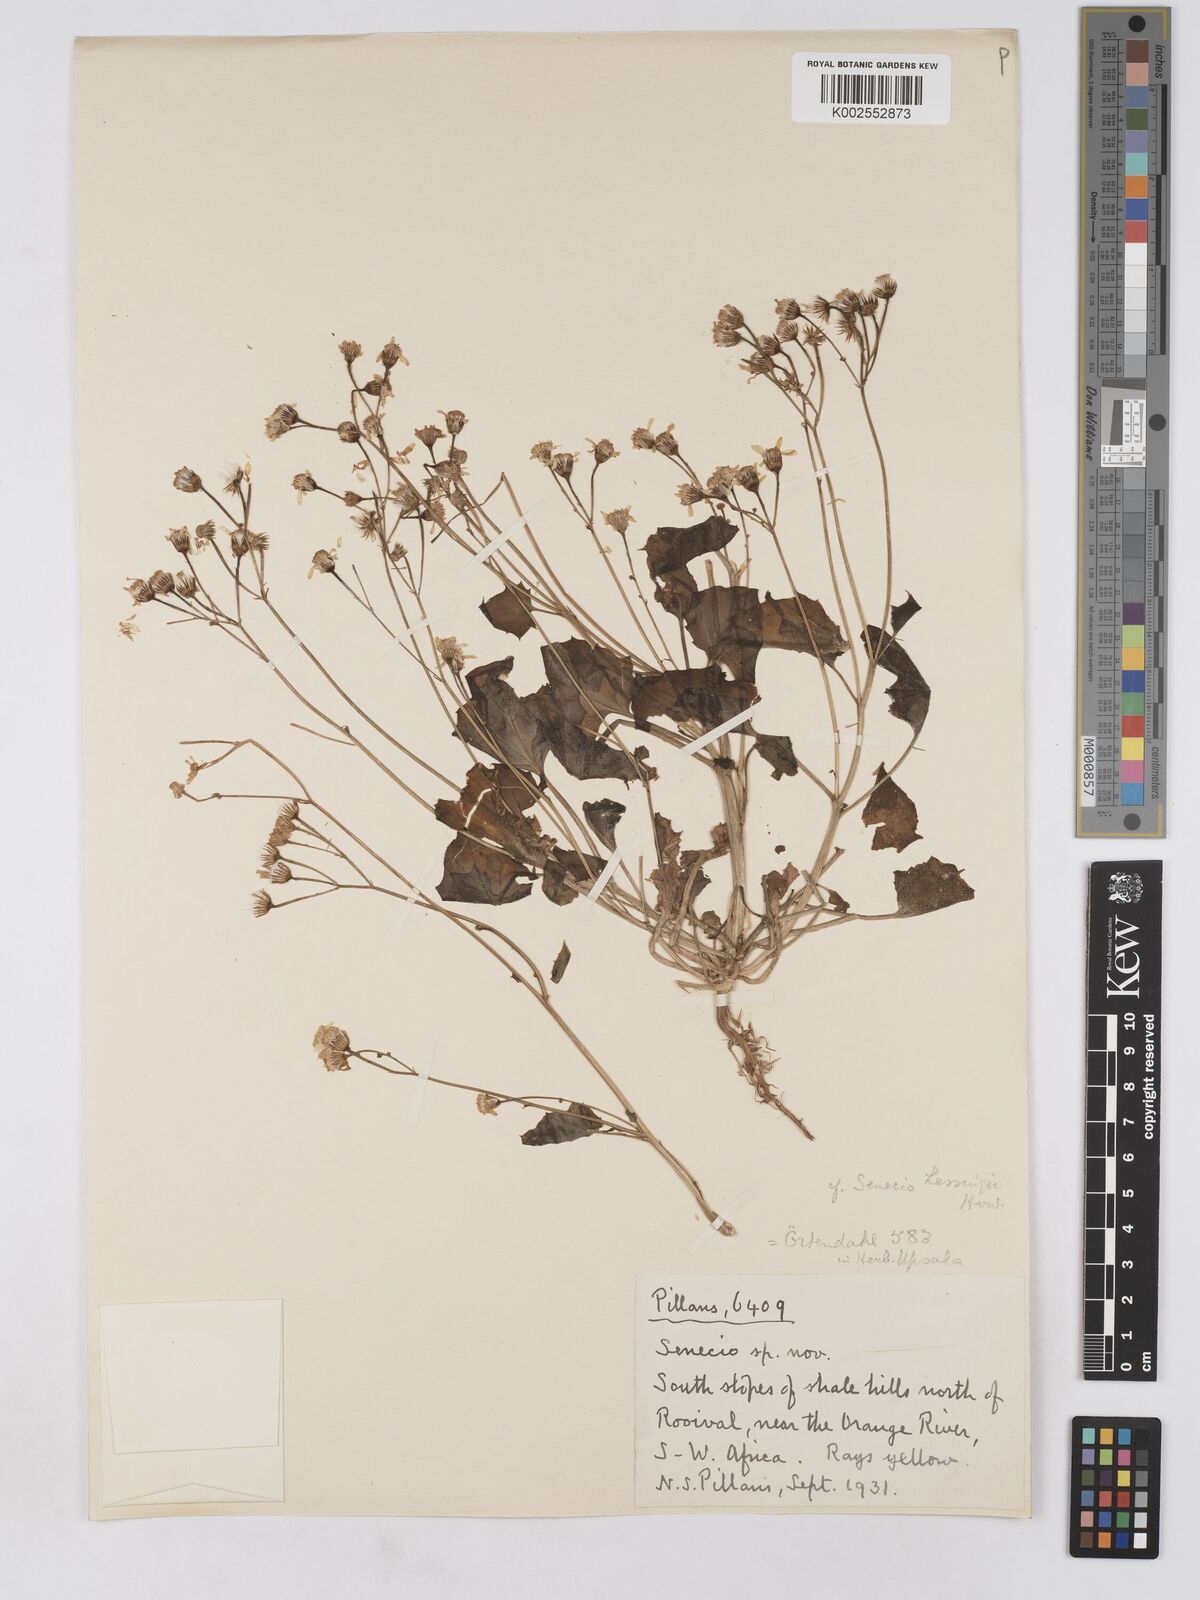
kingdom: Plantae
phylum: Tracheophyta
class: Magnoliopsida
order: Asterales
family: Asteraceae
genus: Senecio
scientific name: Senecio lessingii
